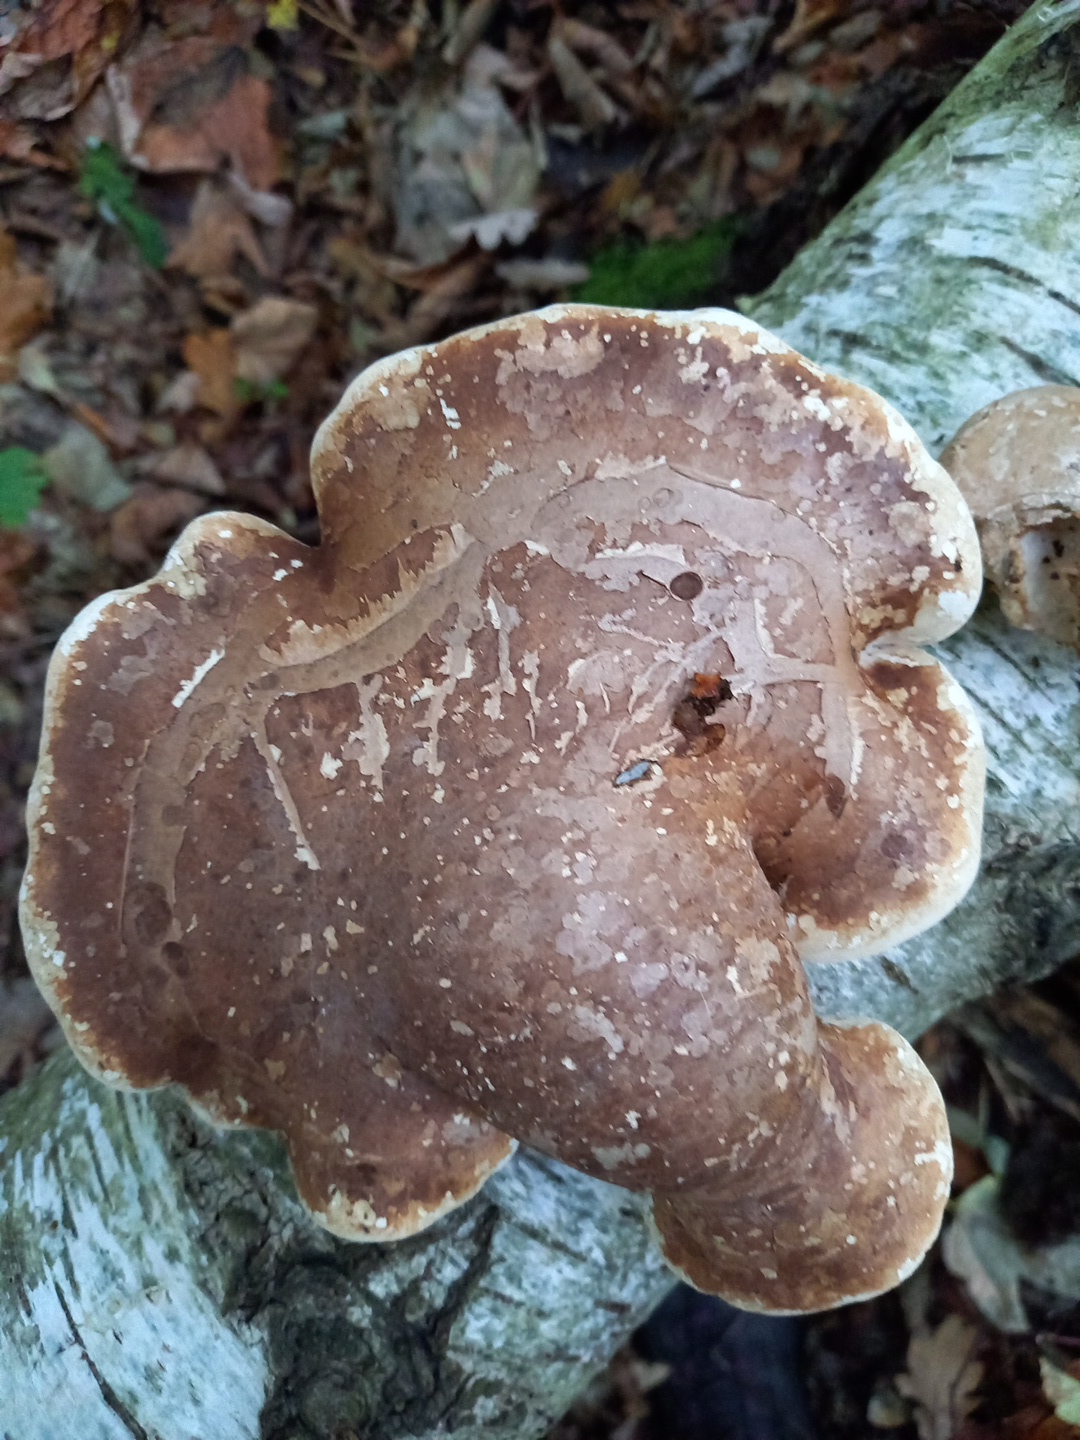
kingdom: Fungi
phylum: Basidiomycota
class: Agaricomycetes
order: Polyporales
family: Fomitopsidaceae
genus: Fomitopsis
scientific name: Fomitopsis betulina
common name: birkeporesvamp
